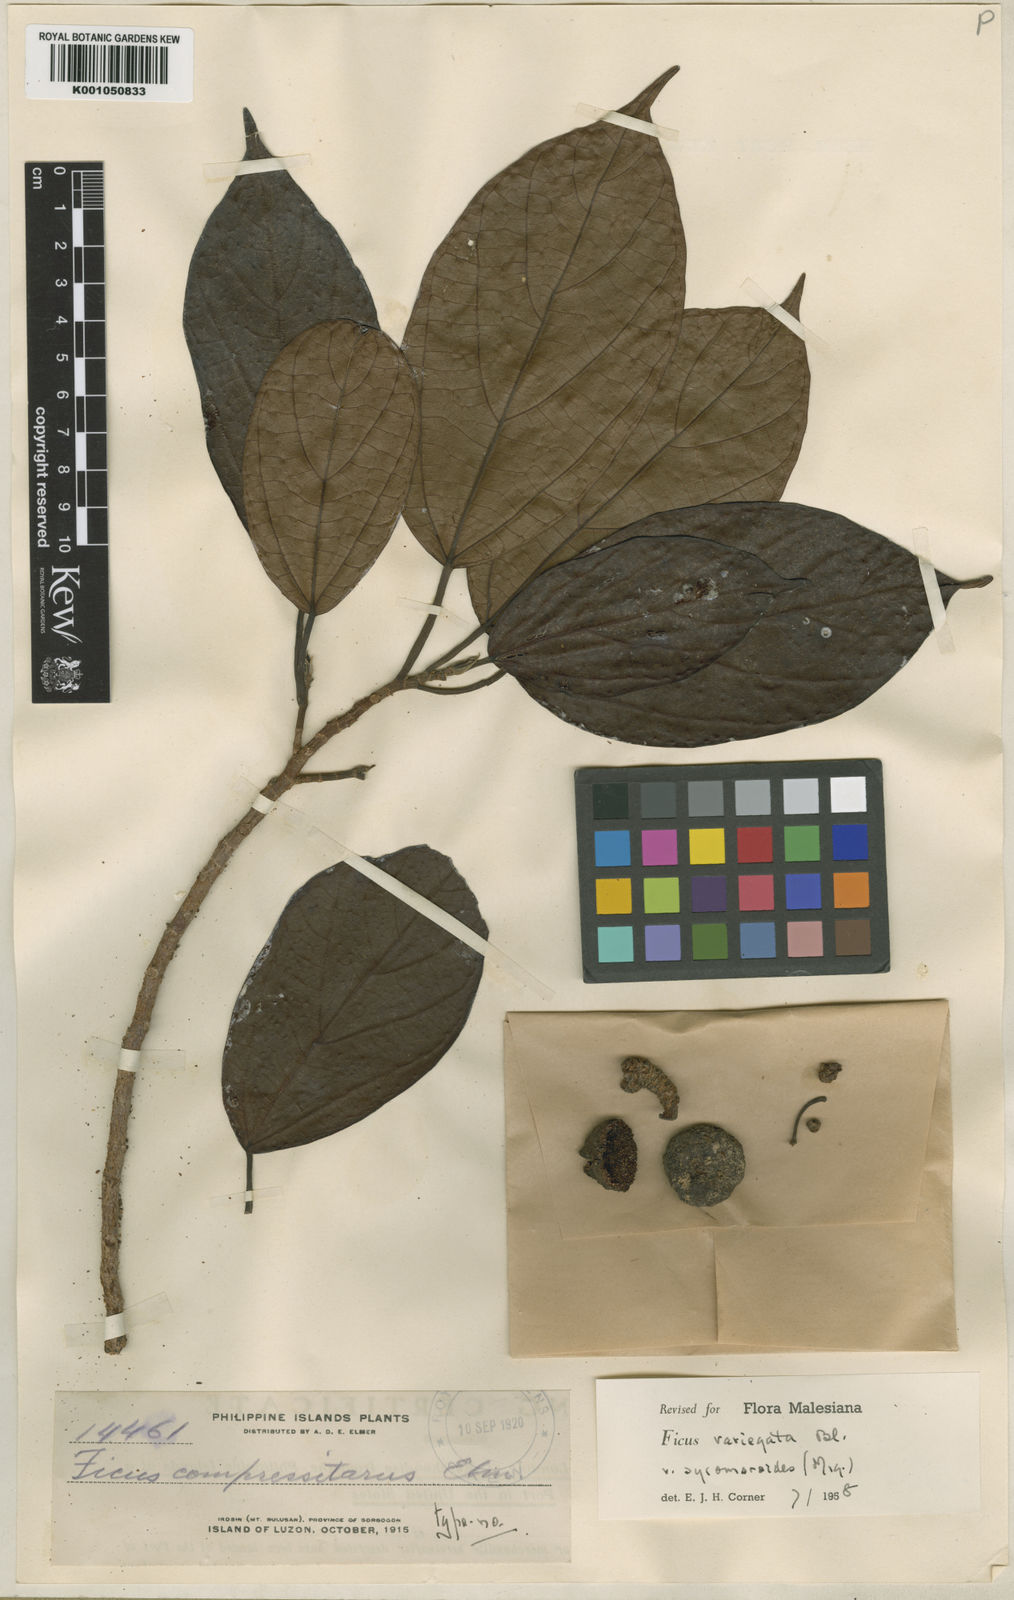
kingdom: Plantae
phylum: Tracheophyta
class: Magnoliopsida
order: Rosales
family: Moraceae
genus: Ficus
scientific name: Ficus variegata
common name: Variegated fig
